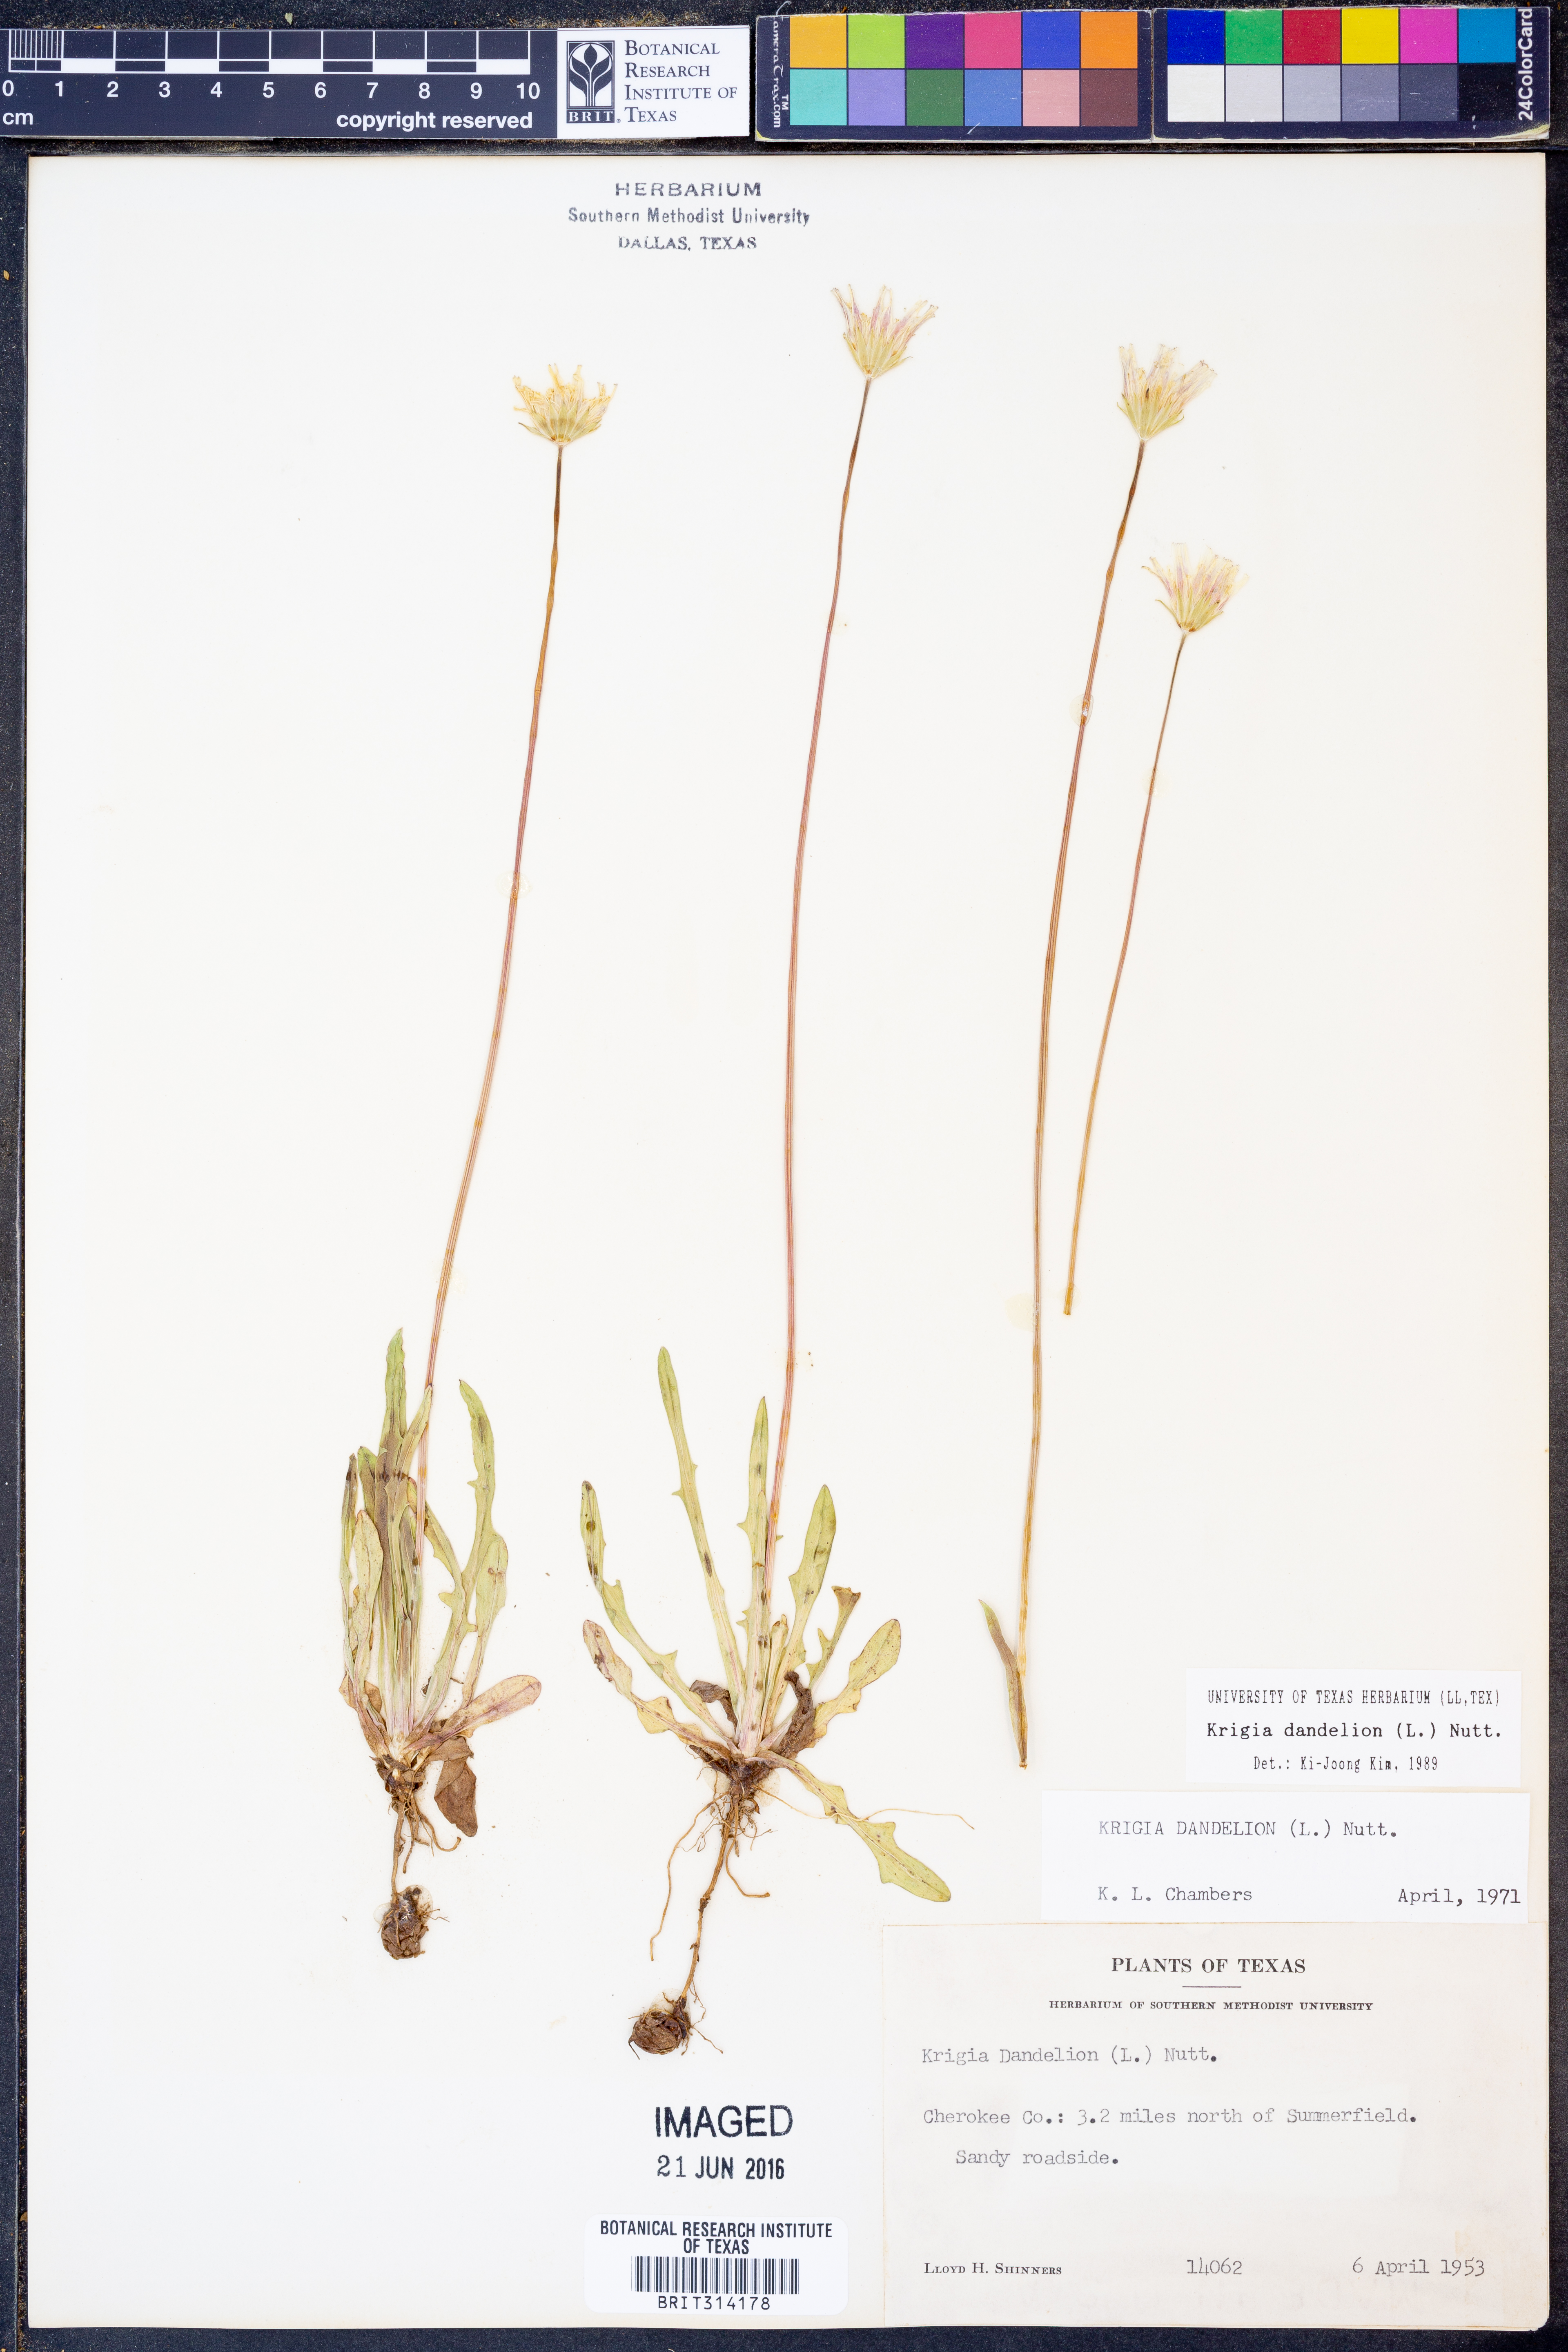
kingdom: Plantae
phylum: Tracheophyta
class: Magnoliopsida
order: Asterales
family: Asteraceae
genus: Krigia
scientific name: Krigia dandelion
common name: Colonial dwarf-dandelion
